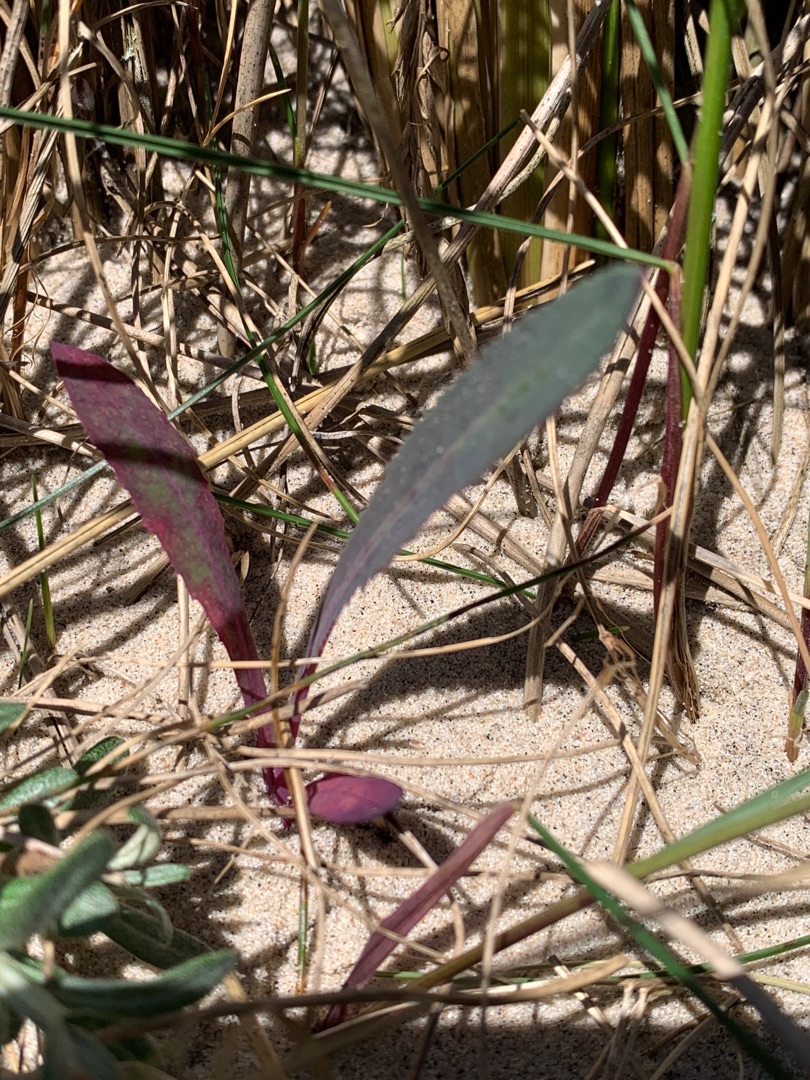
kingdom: Plantae
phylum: Tracheophyta
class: Magnoliopsida
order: Asterales
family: Asteraceae
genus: Sonchus
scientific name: Sonchus arvensis
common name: Ager-svinemælk
